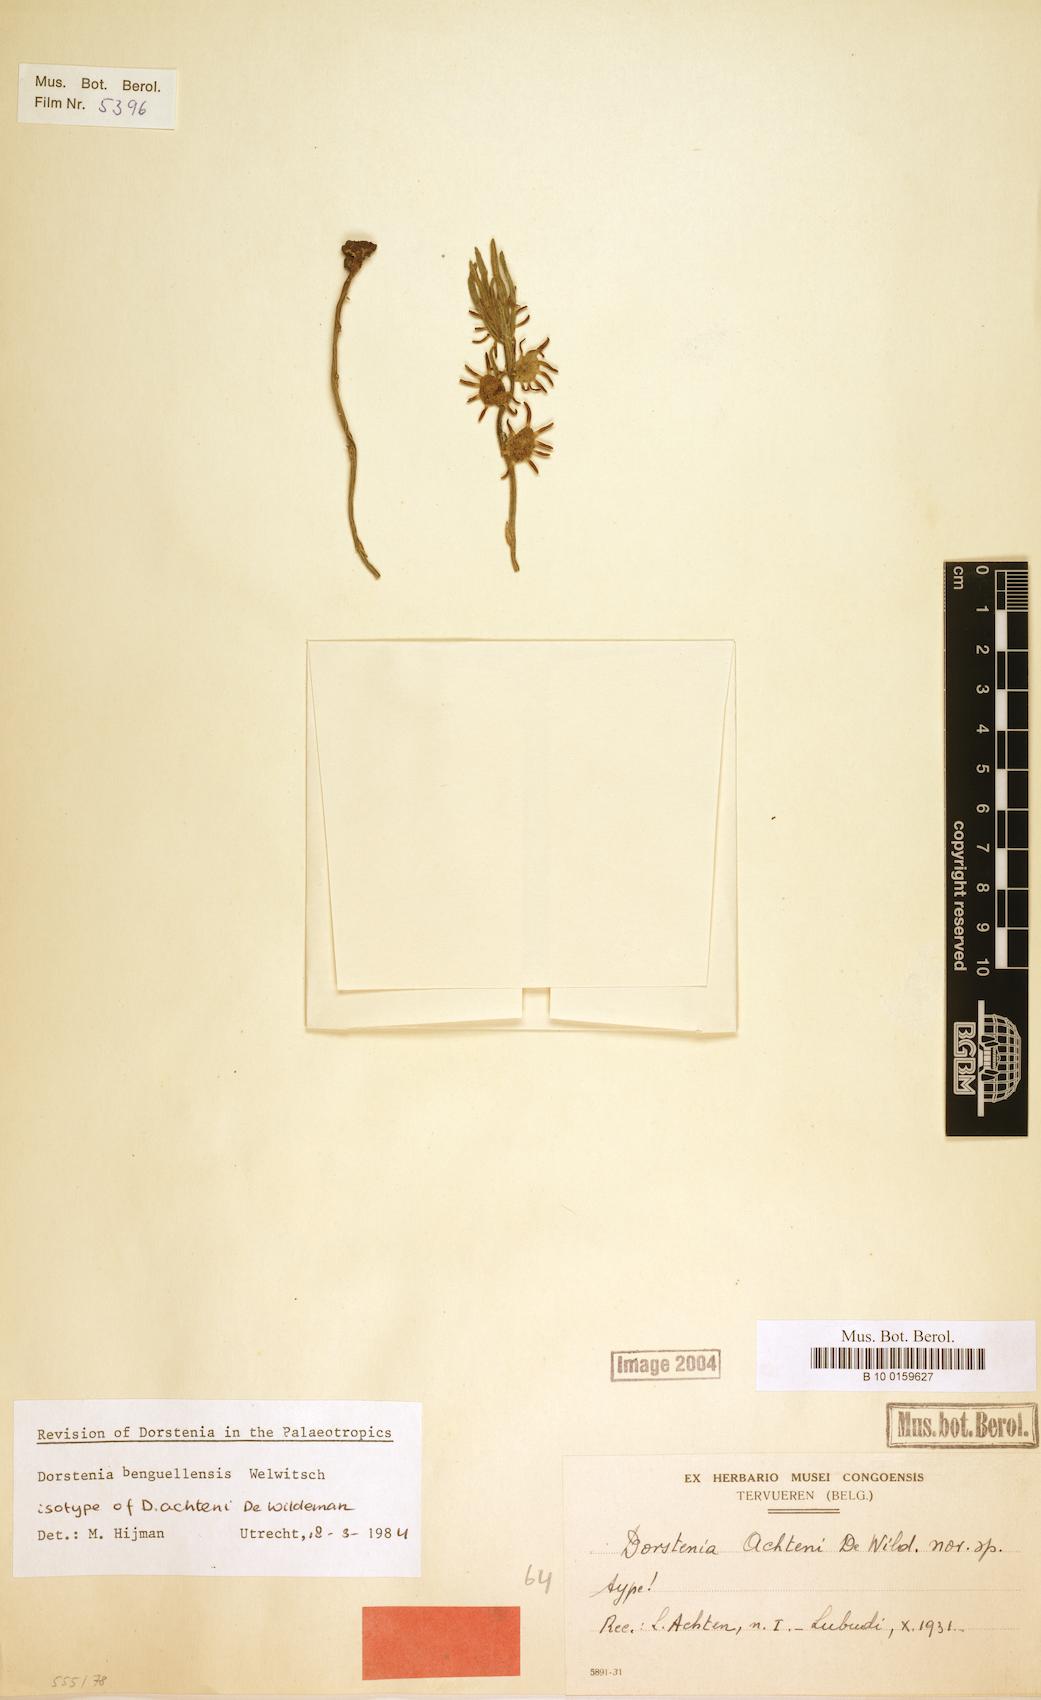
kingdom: Plantae
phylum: Tracheophyta
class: Magnoliopsida
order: Rosales
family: Moraceae
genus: Dorstenia
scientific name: Dorstenia benguellensis
